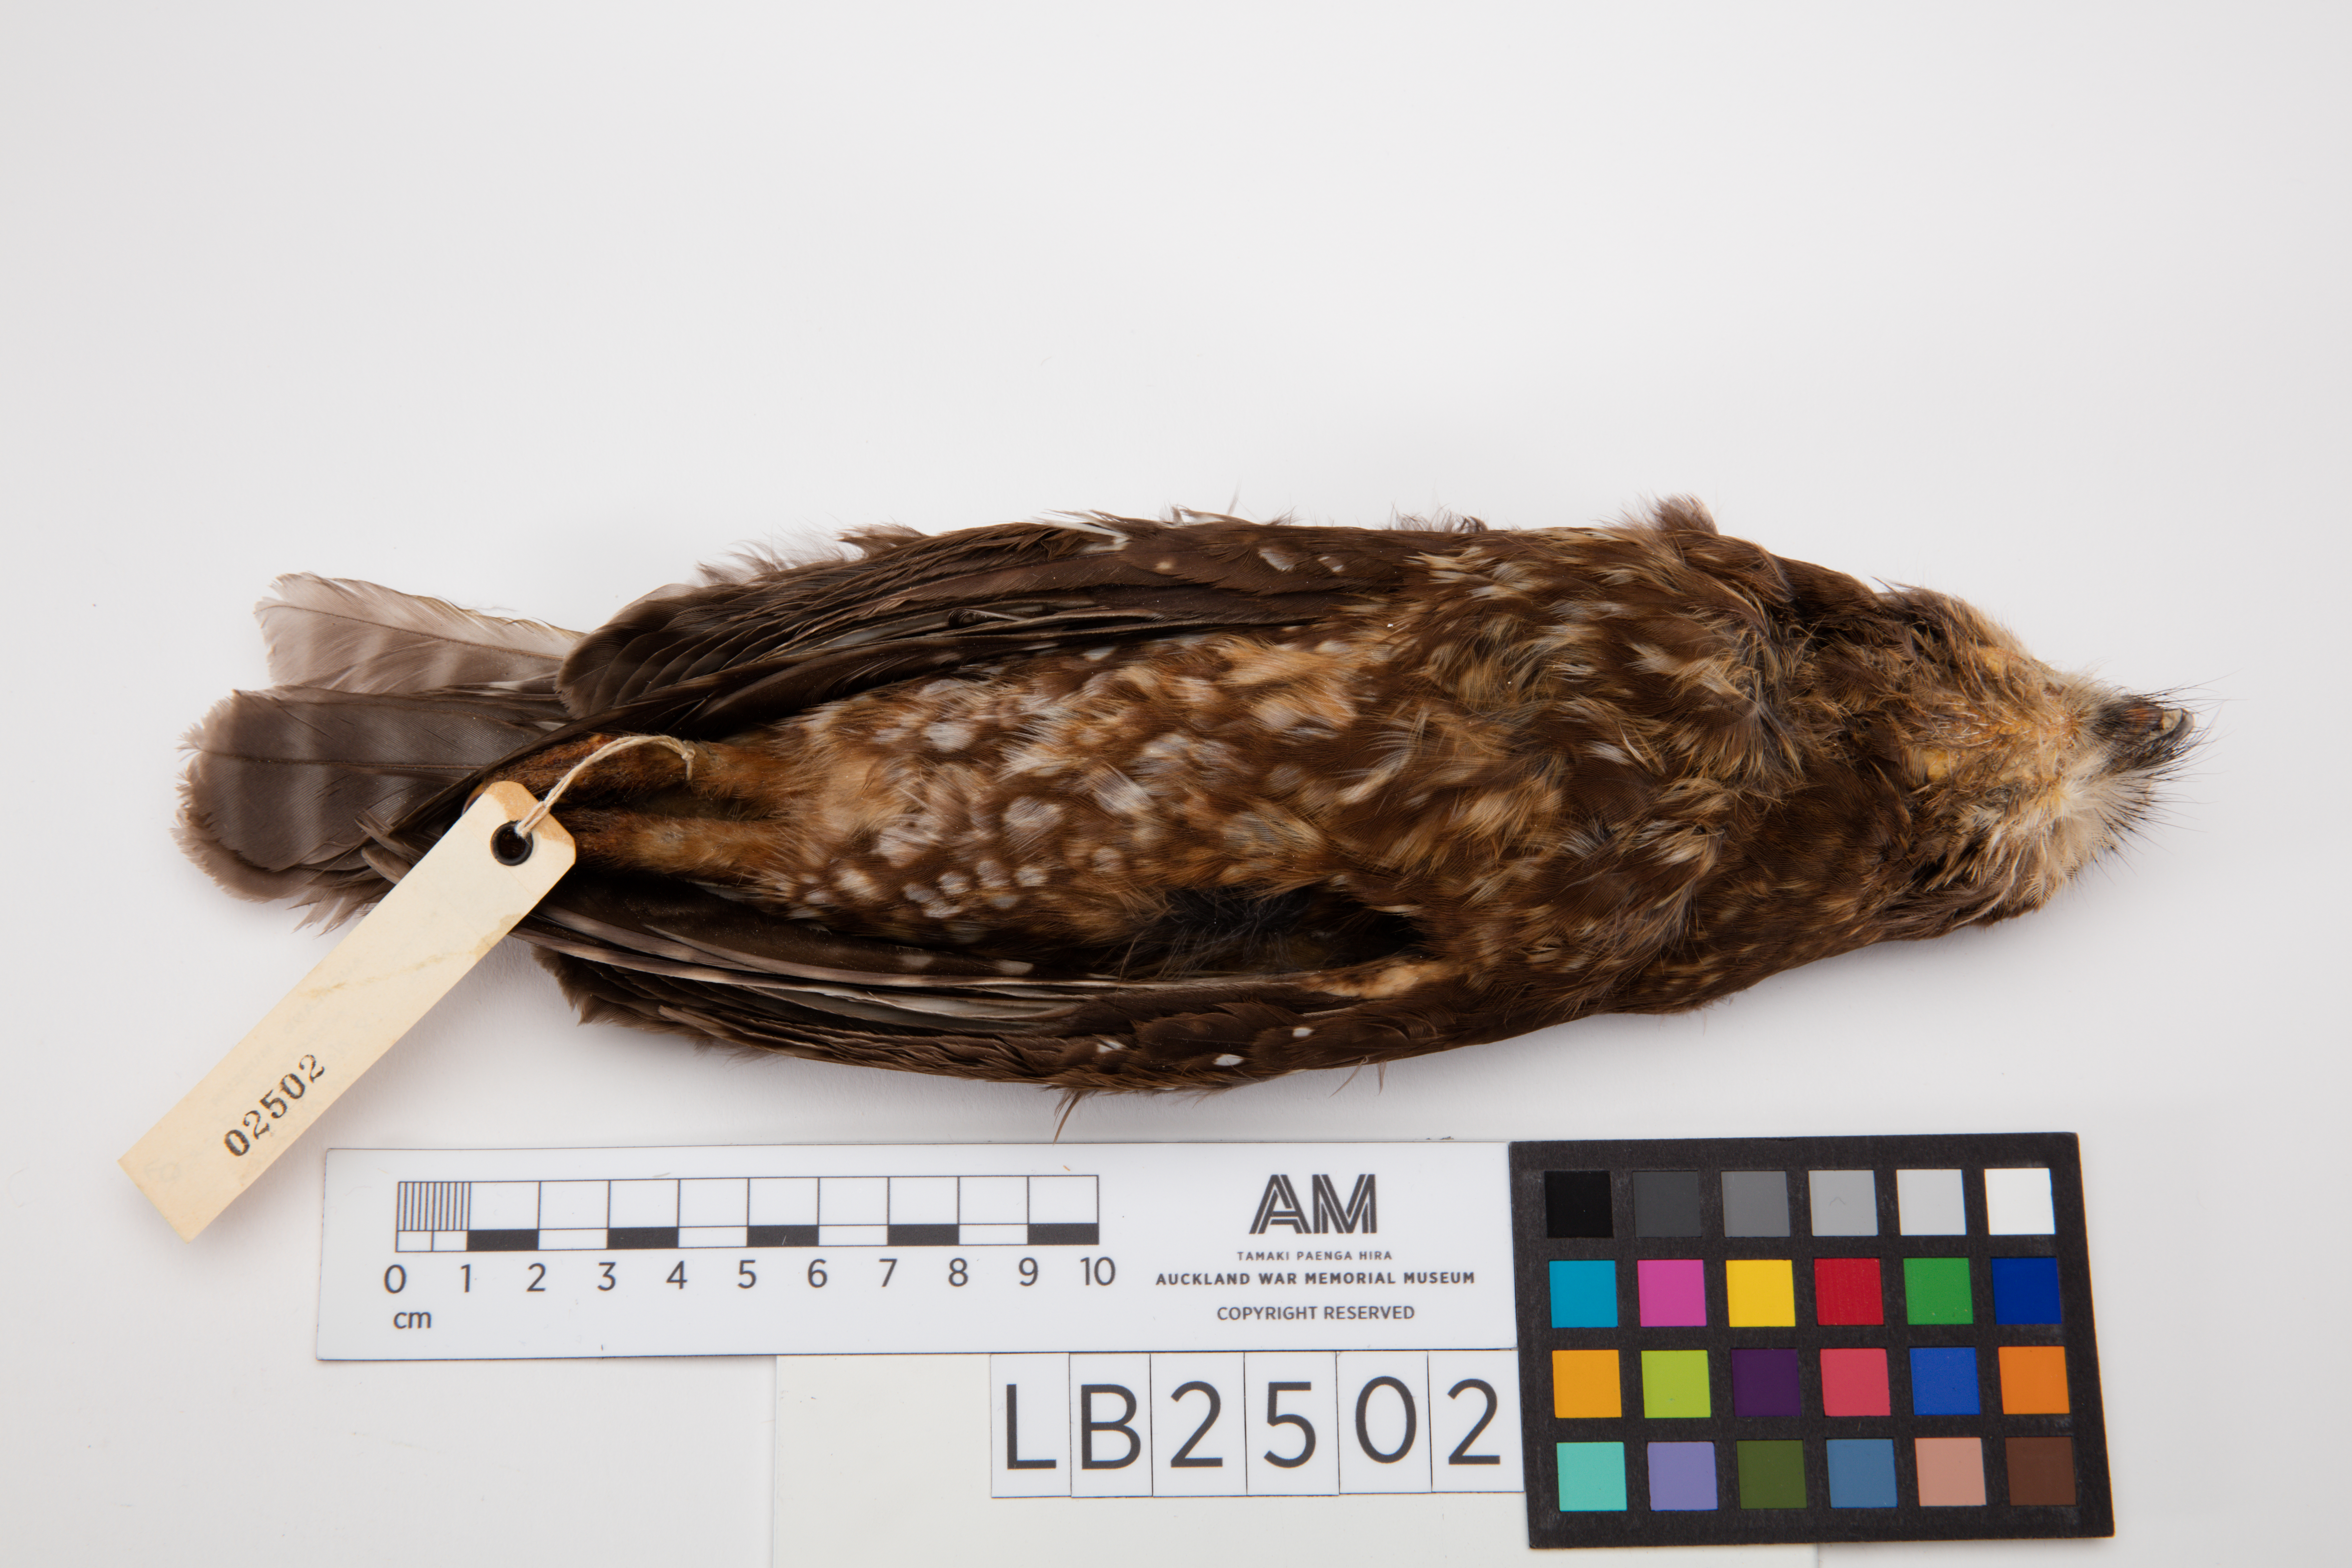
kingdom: Animalia
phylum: Chordata
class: Aves
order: Strigiformes
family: Strigidae
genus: Ninox
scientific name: Ninox novaeseelandiae
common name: Morepork
